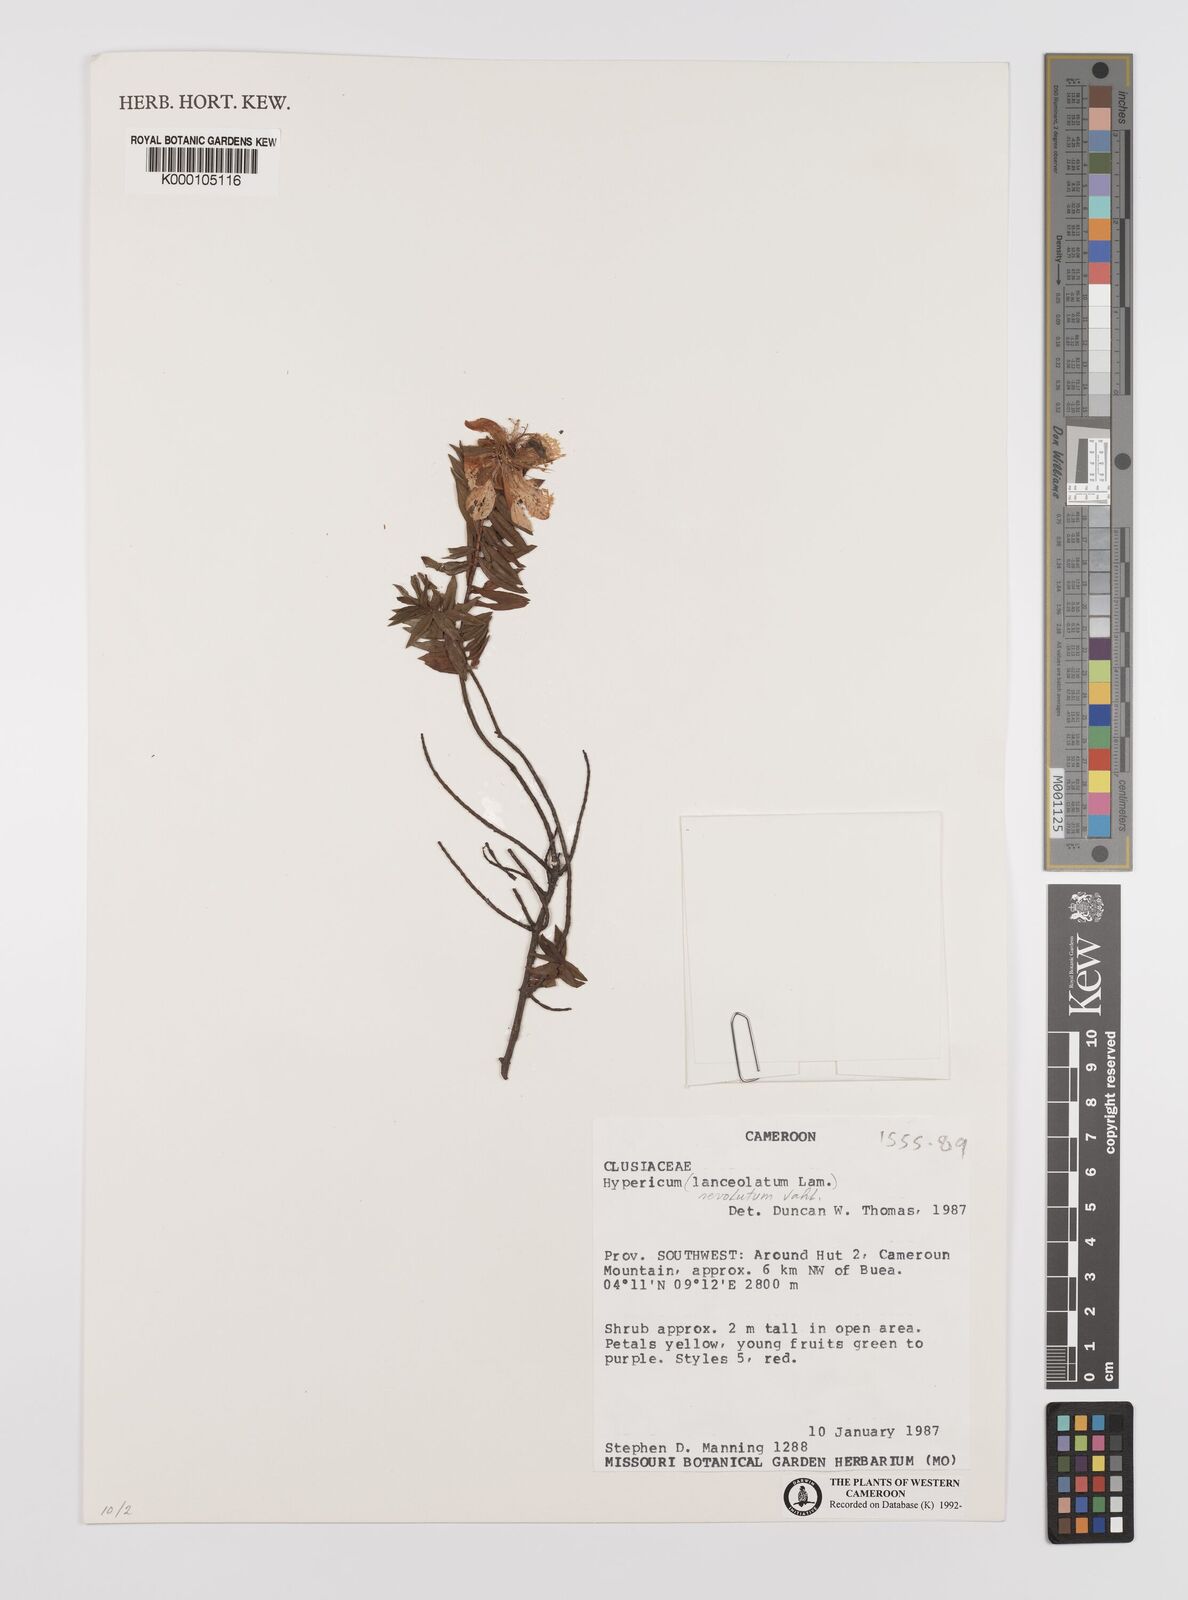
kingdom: Plantae
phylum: Tracheophyta
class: Magnoliopsida
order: Malpighiales
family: Hypericaceae
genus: Hypericum
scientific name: Hypericum revolutum
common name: Curry bush
